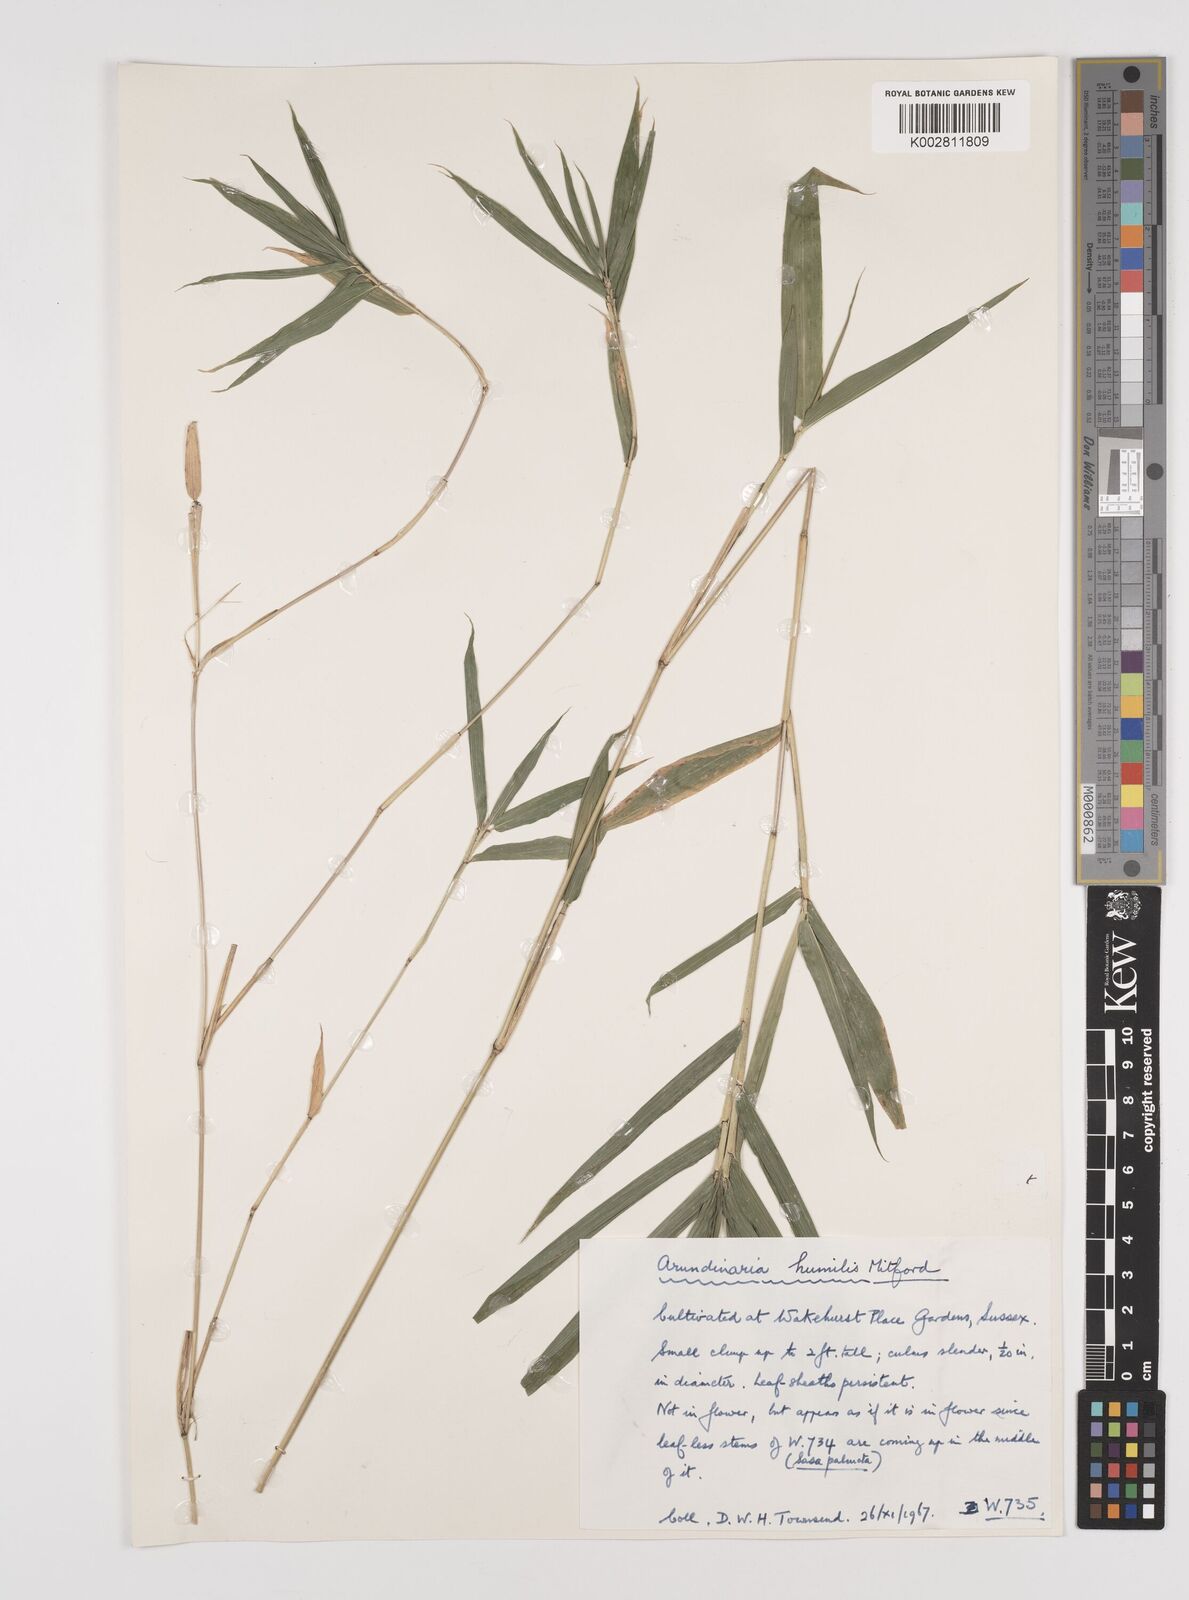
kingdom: Plantae
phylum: Tracheophyta
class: Liliopsida
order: Poales
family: Poaceae
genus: Pseudosasa
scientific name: Pseudosasa humilis
